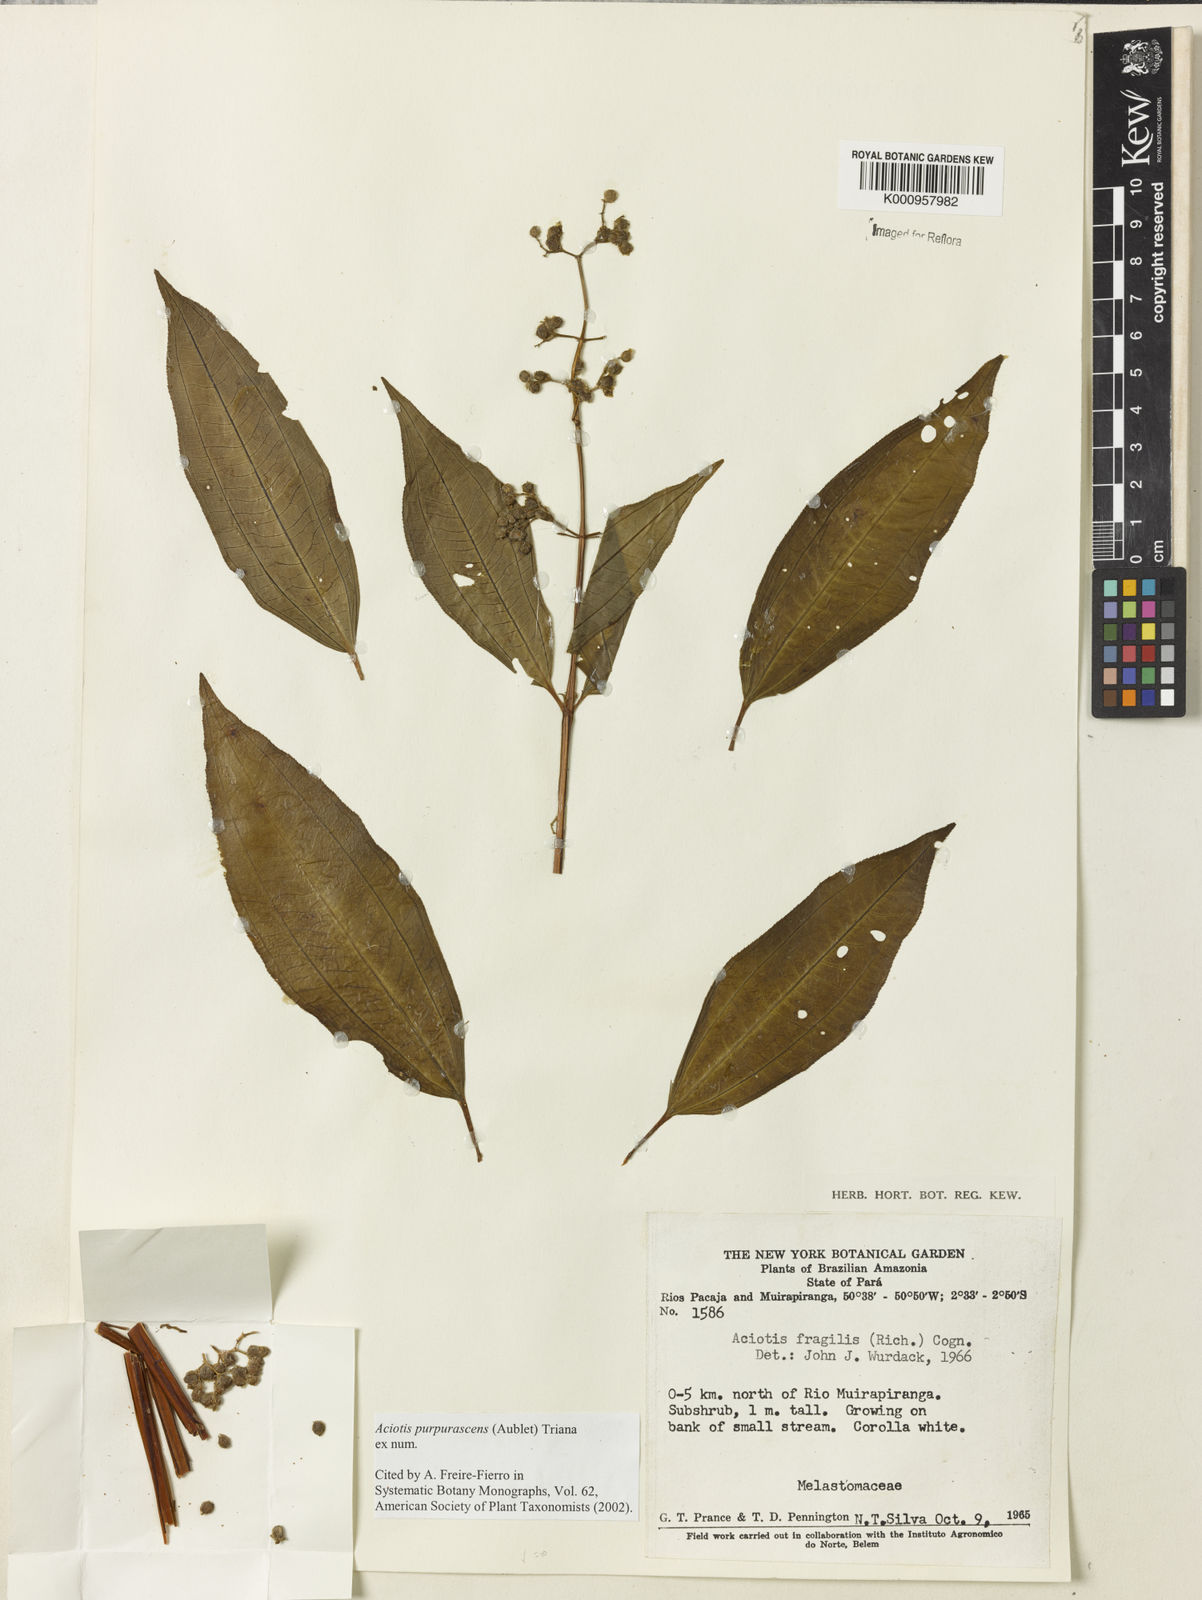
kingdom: Plantae
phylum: Tracheophyta
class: Magnoliopsida
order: Myrtales
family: Melastomataceae
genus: Aciotis
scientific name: Aciotis purpurascens
